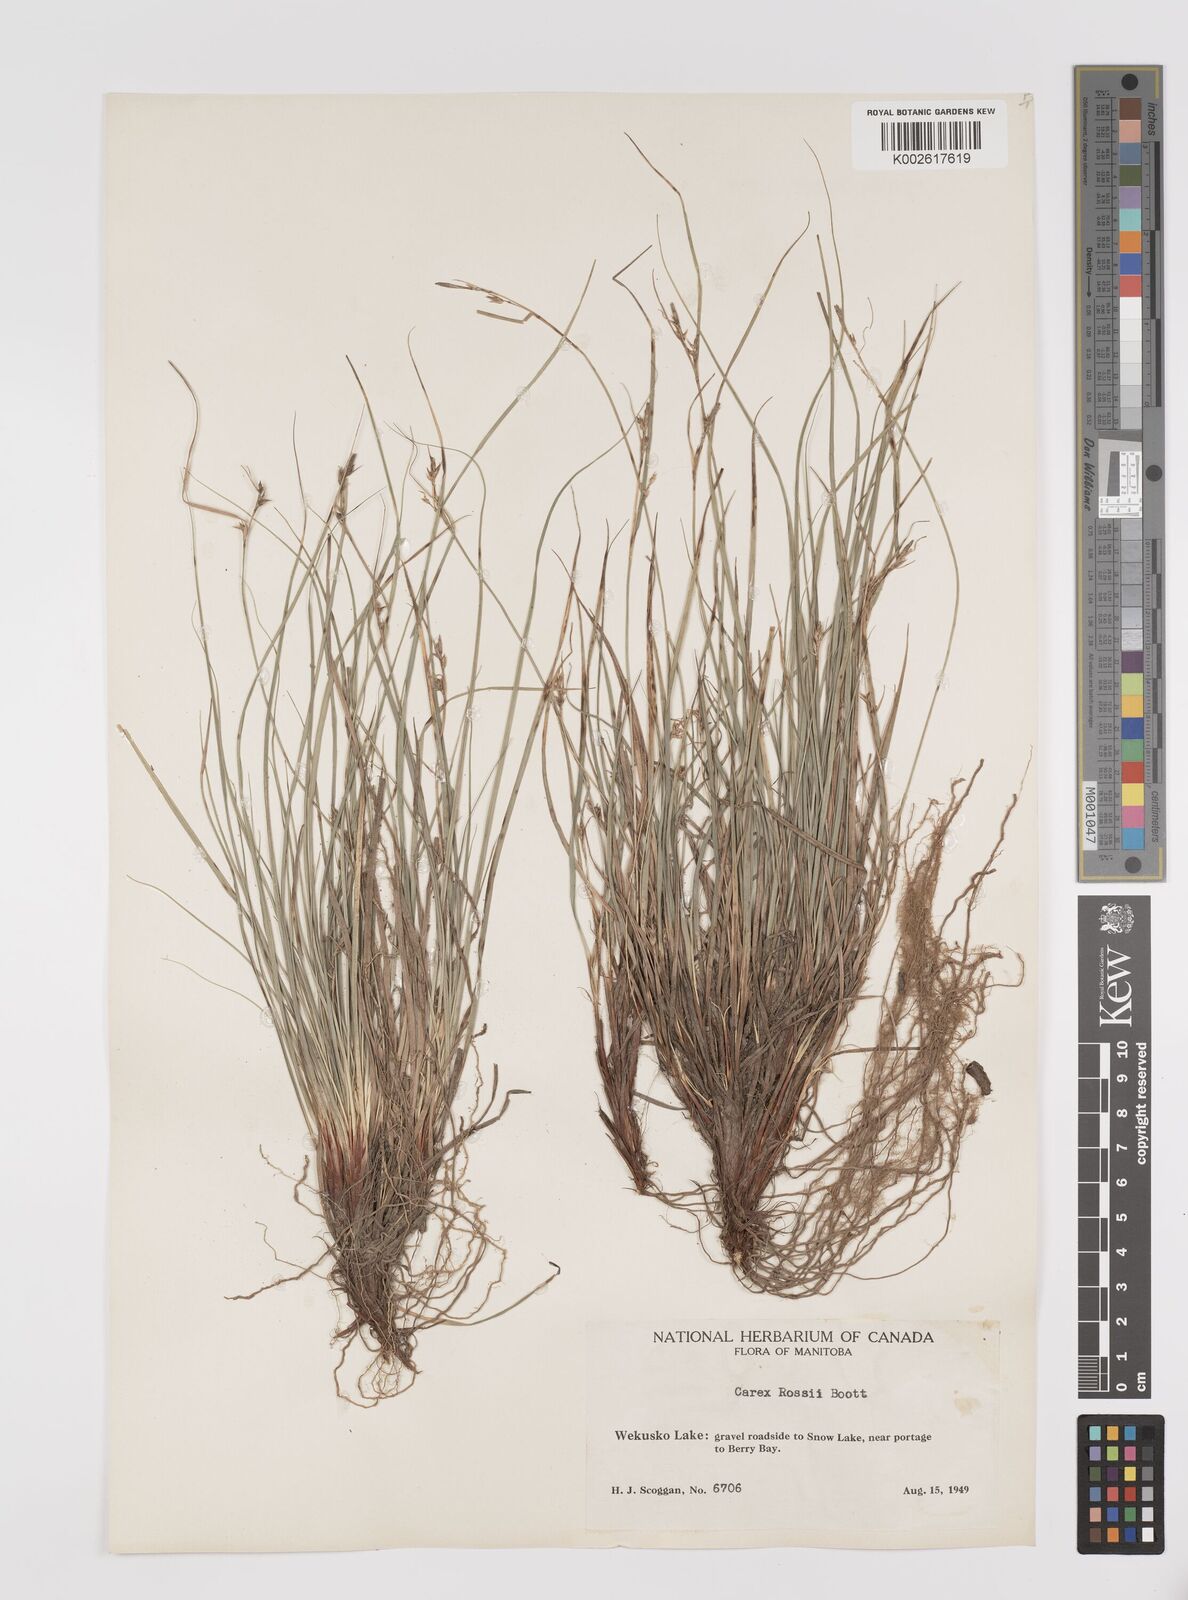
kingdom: Plantae
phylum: Tracheophyta
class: Liliopsida
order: Poales
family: Cyperaceae
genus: Carex
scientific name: Carex rossii
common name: Ross' sedge
